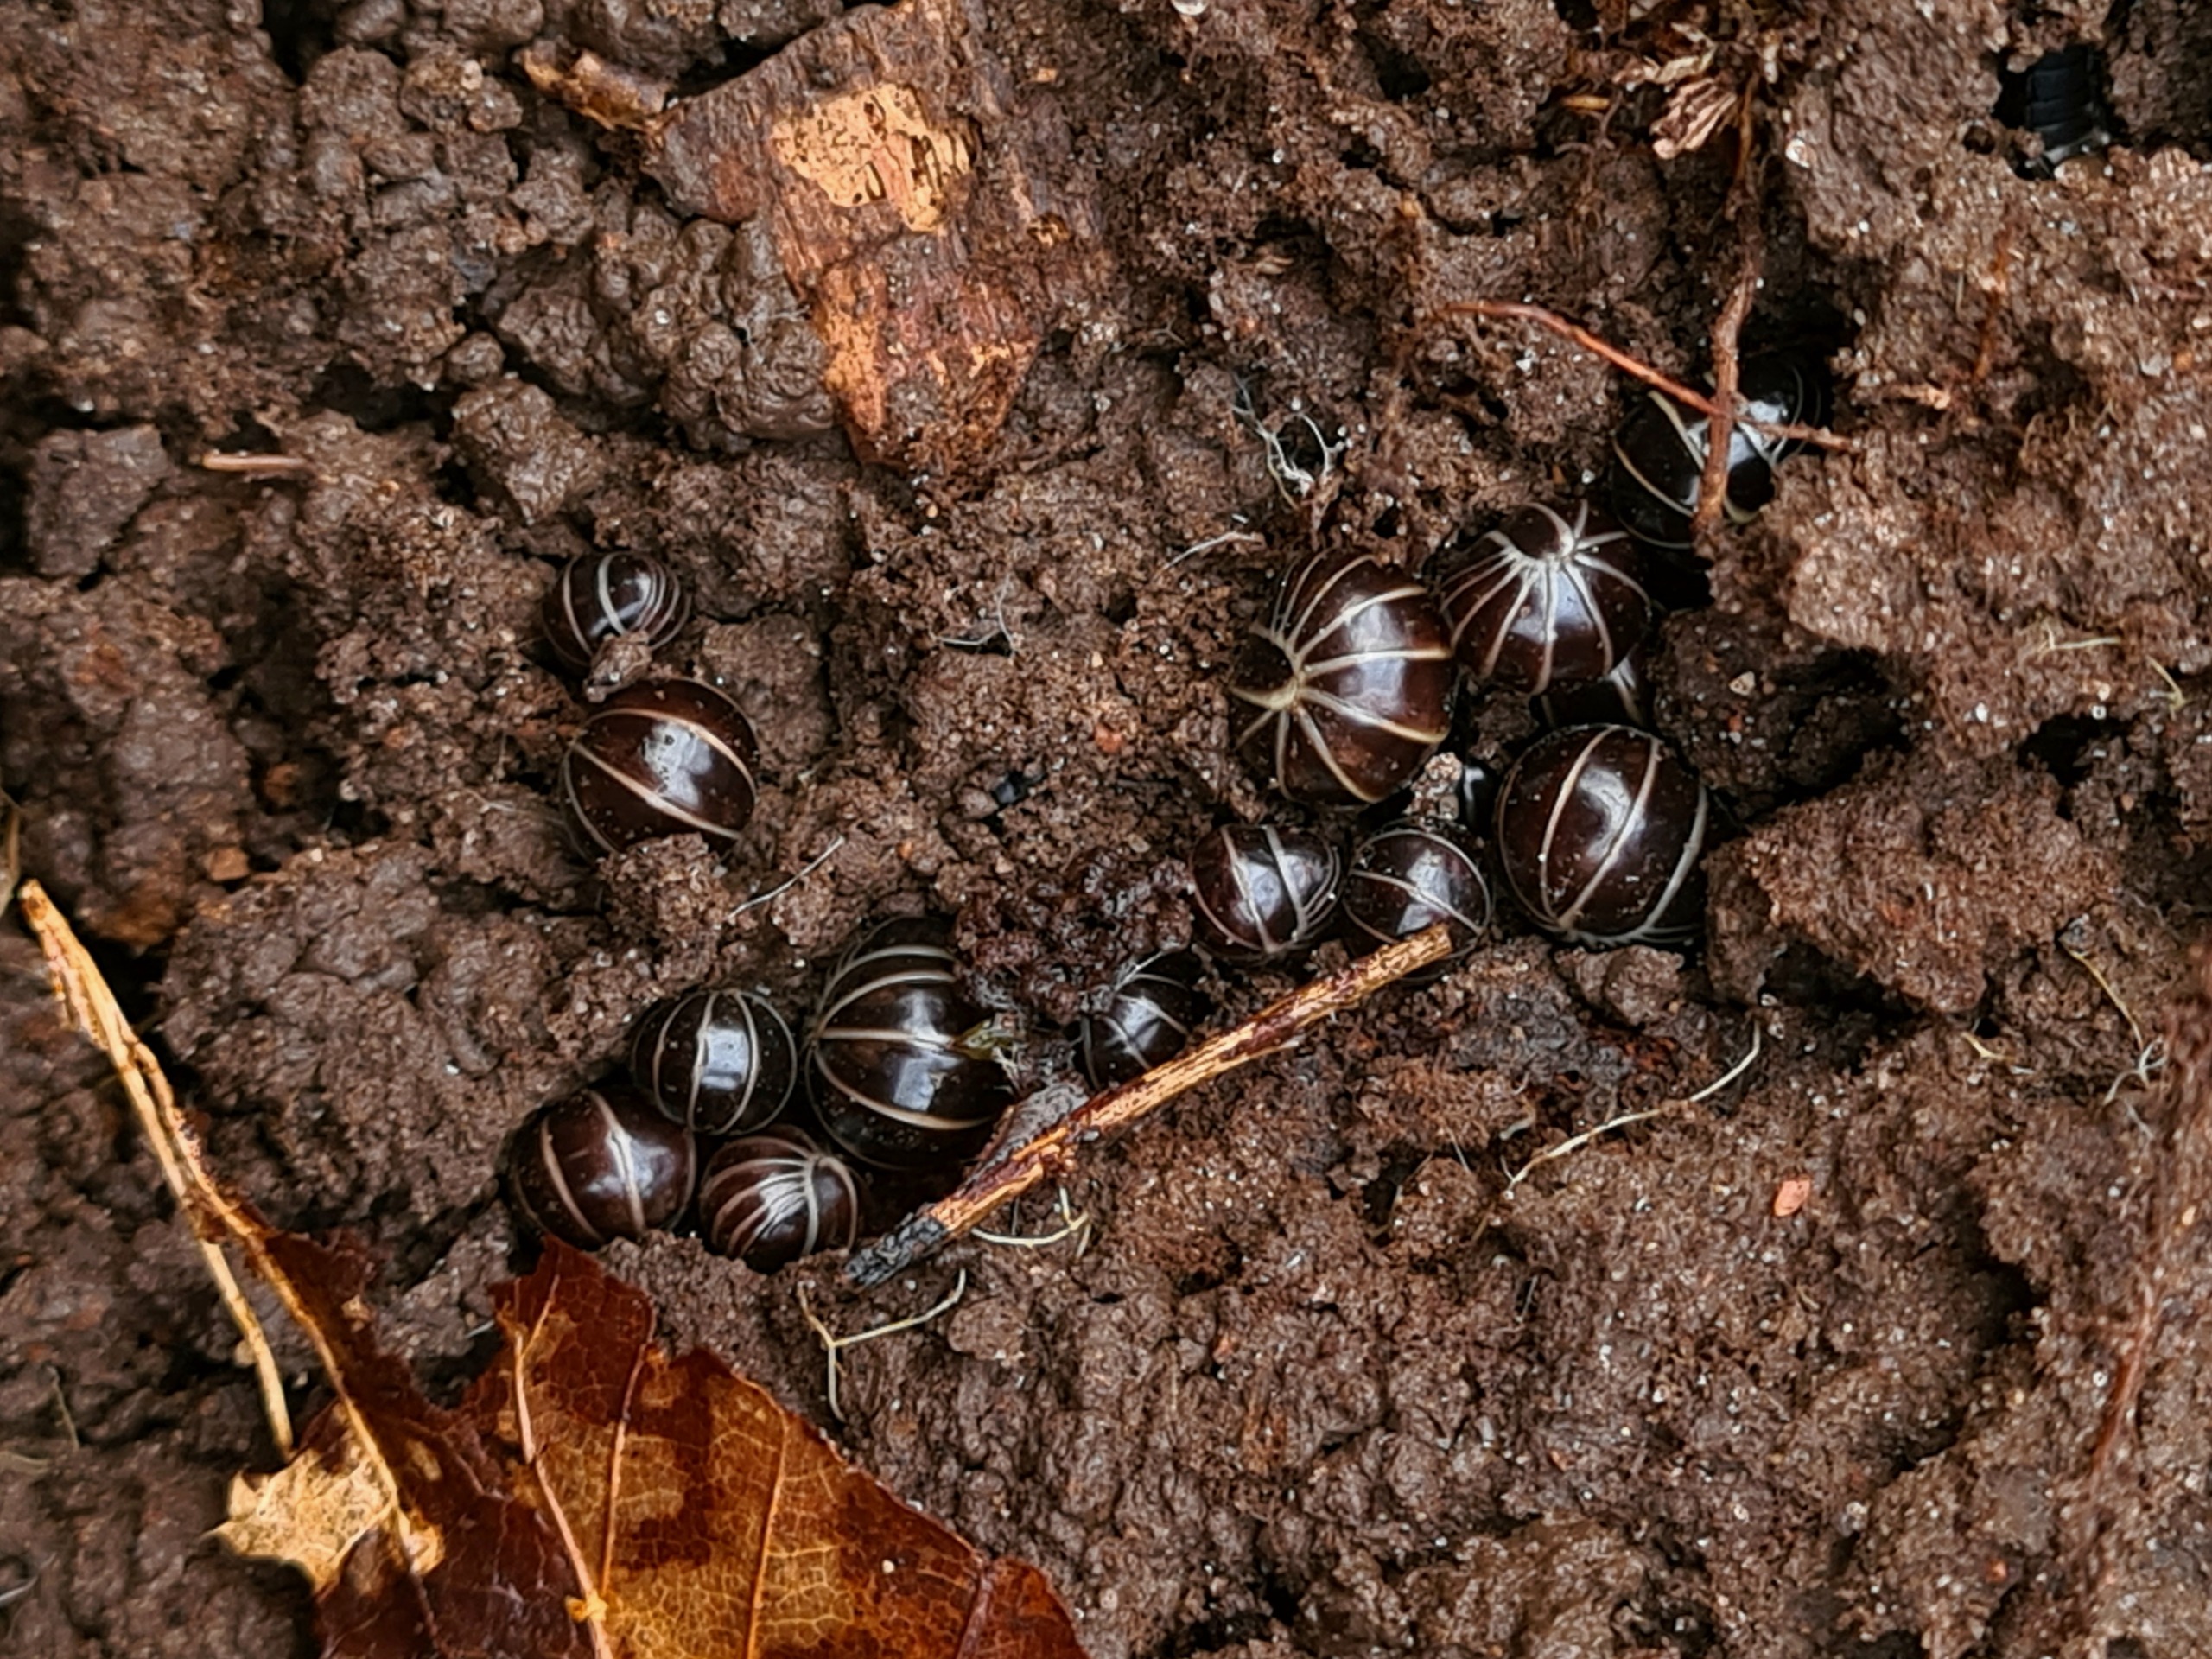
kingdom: Animalia
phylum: Arthropoda
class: Diplopoda
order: Glomerida
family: Glomeridae
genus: Glomeris
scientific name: Glomeris marginata
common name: Kugletusindben
